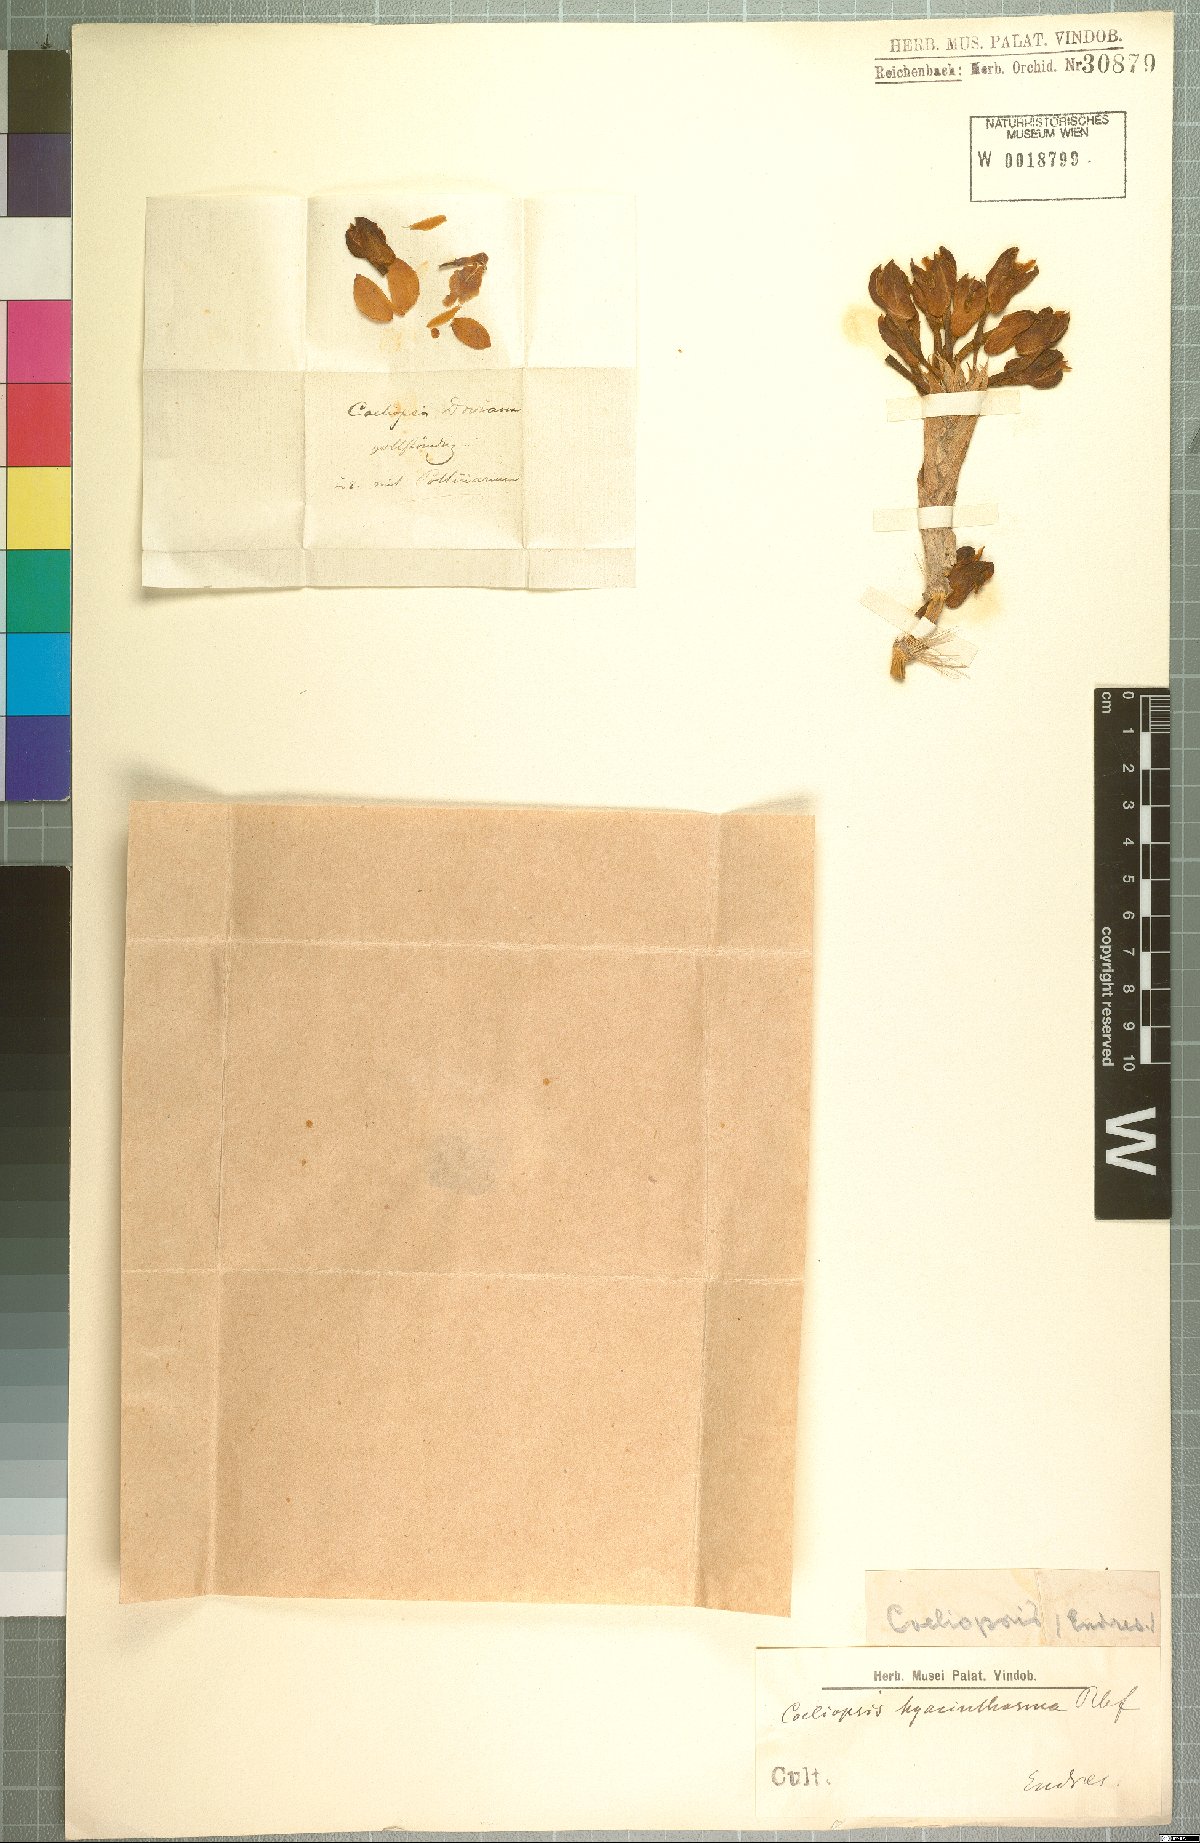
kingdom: Plantae
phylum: Tracheophyta
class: Liliopsida
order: Asparagales
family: Orchidaceae
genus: Coeliopsis
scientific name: Coeliopsis hyacinthosma
